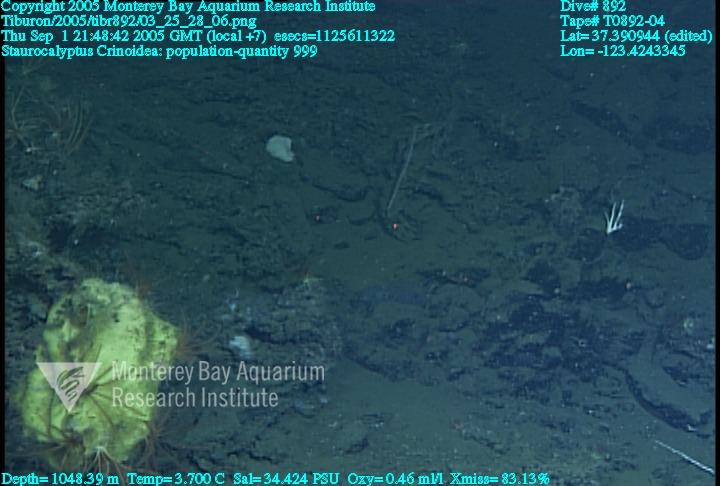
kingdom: Animalia
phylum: Porifera
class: Hexactinellida
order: Lyssacinosida
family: Rossellidae
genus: Staurocalyptus
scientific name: Staurocalyptus
